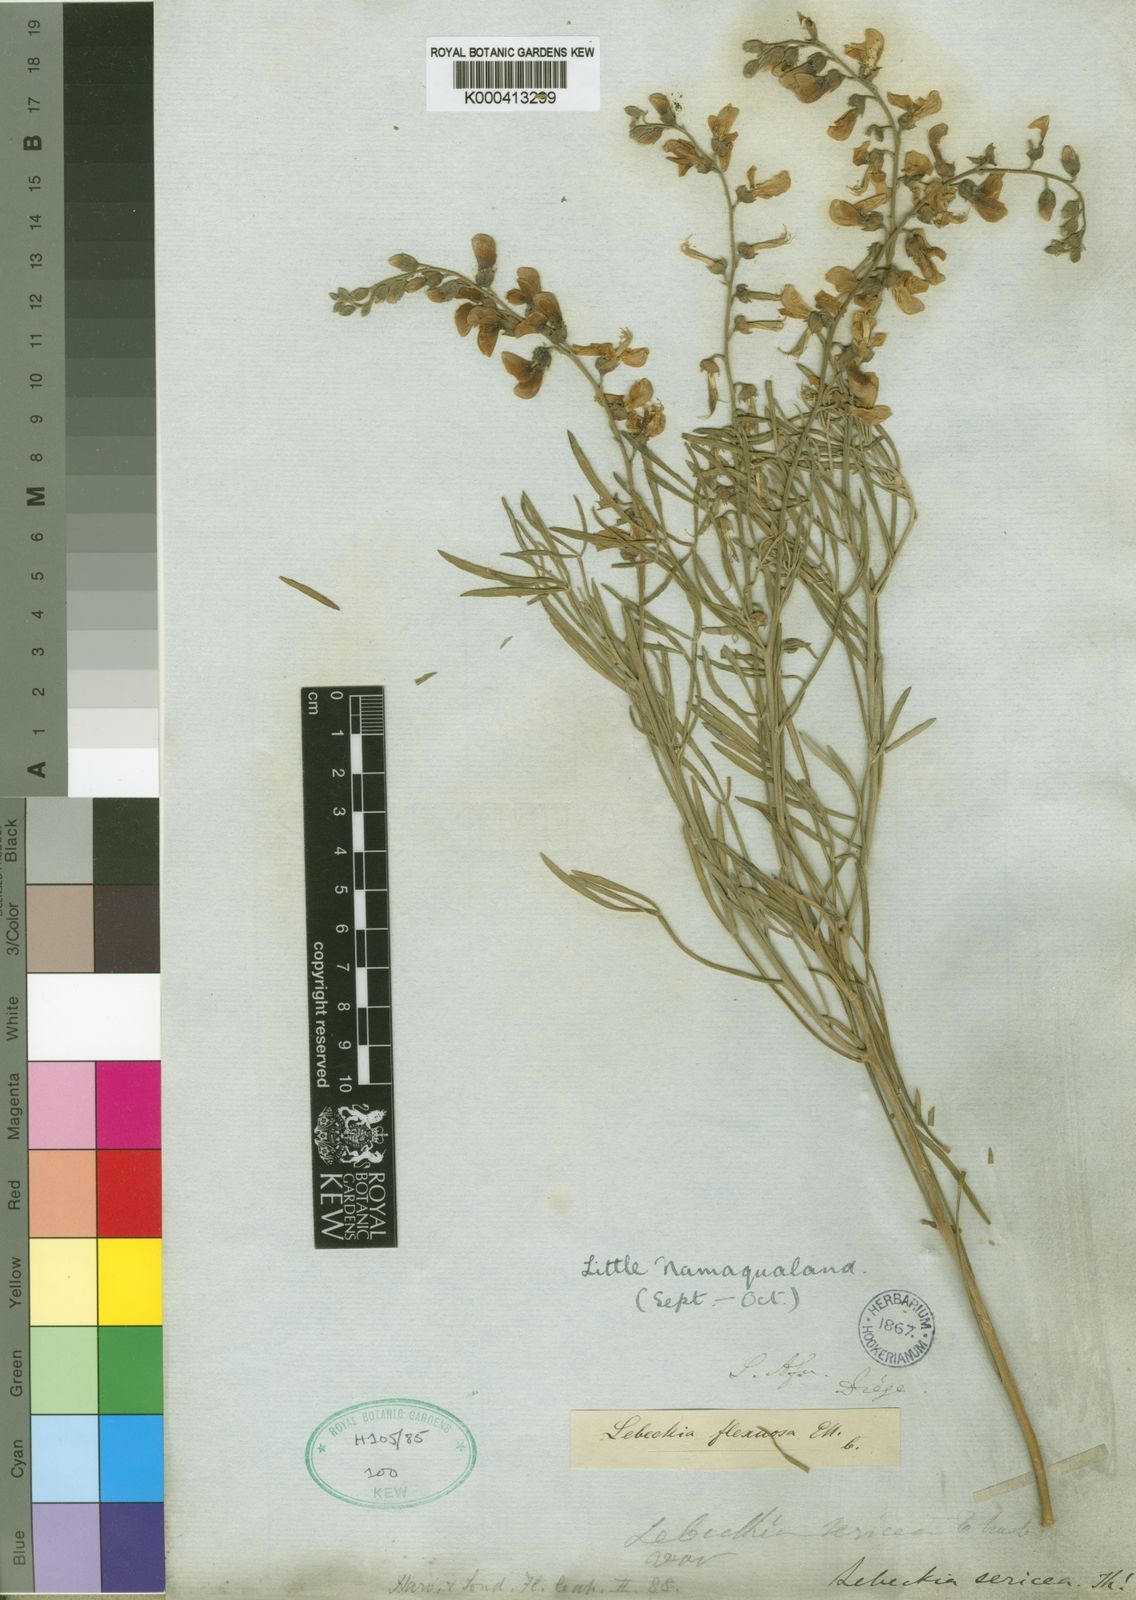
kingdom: Plantae
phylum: Tracheophyta
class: Magnoliopsida
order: Fabales
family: Fabaceae
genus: Calobota
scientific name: Calobota sericea
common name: Silver-pea
